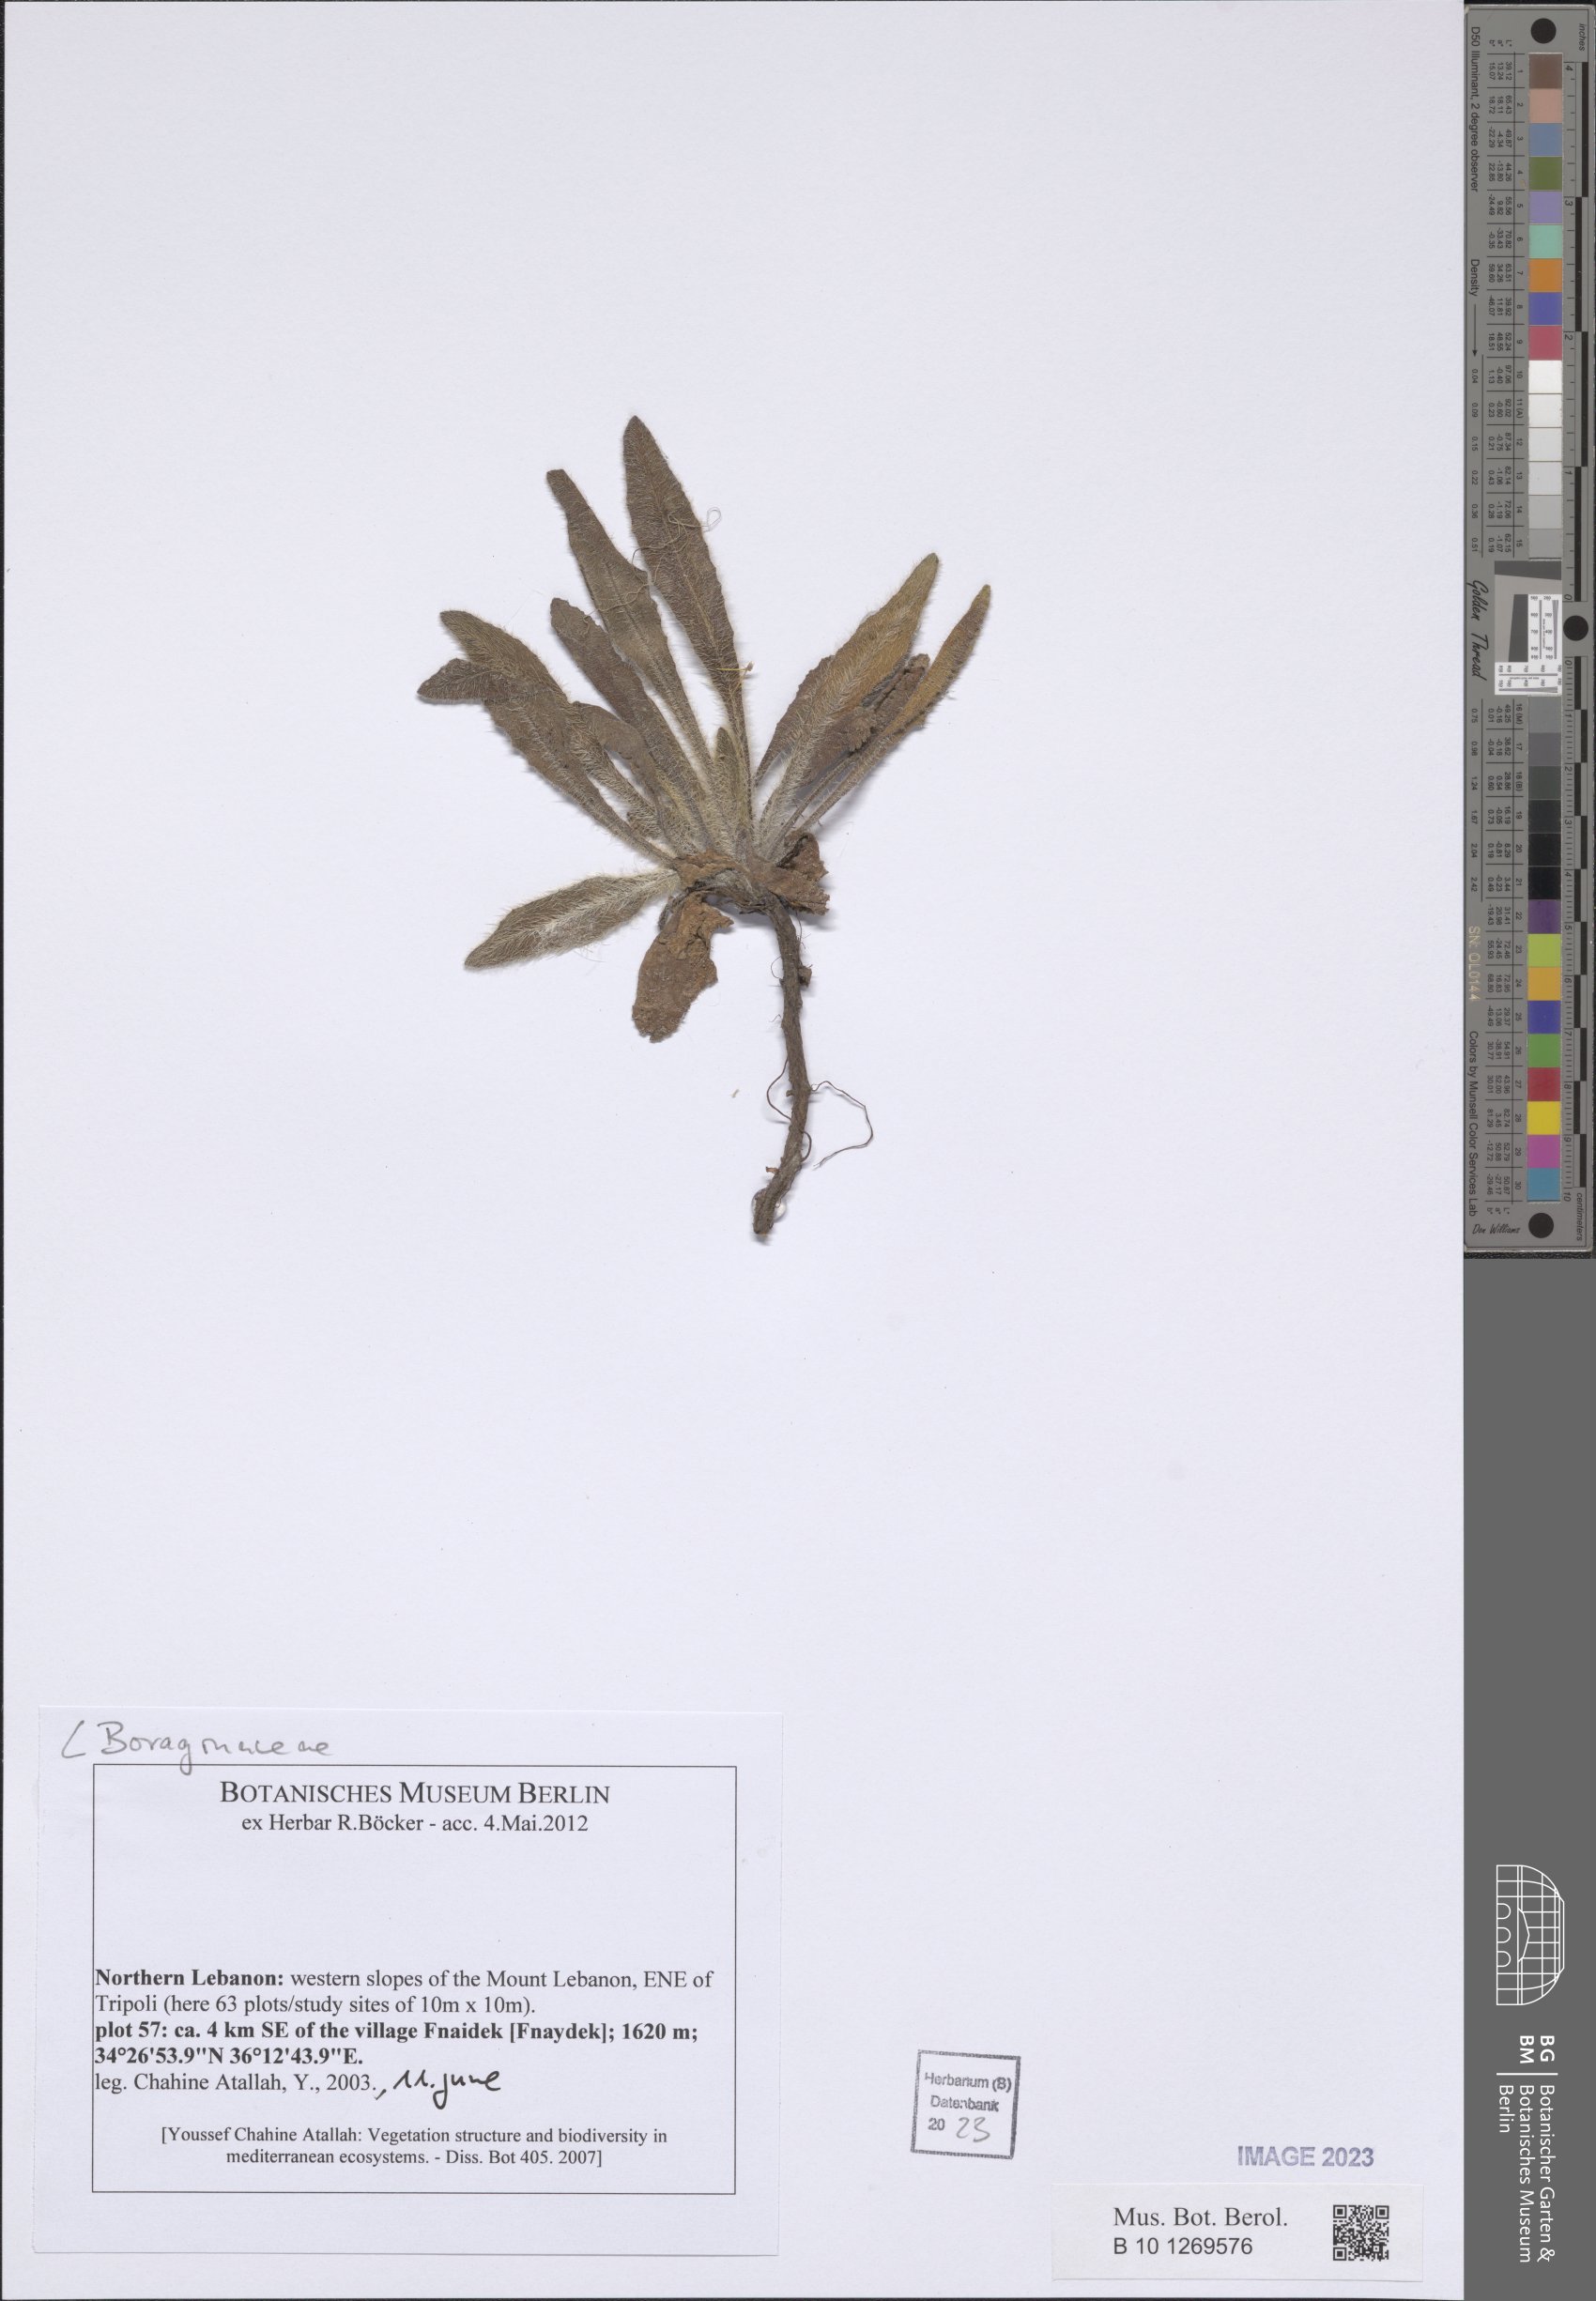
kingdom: Plantae
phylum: Tracheophyta
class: Magnoliopsida
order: Boraginales
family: Boraginaceae
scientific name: Boraginaceae
